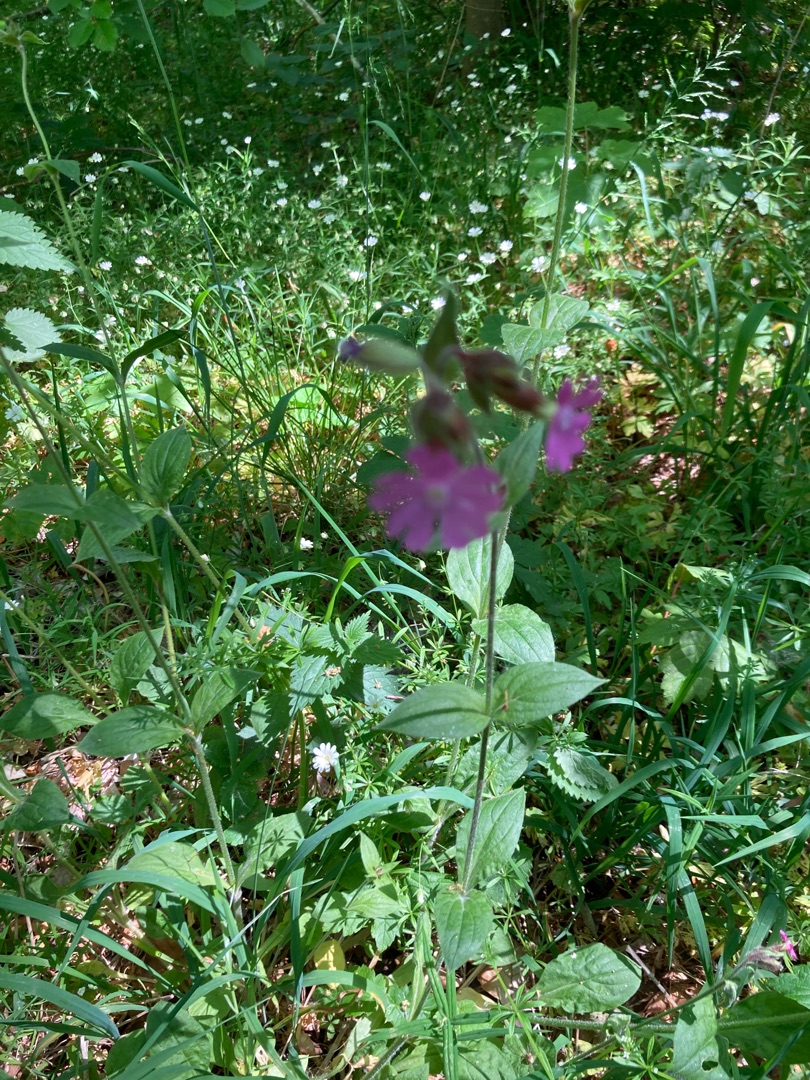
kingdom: Plantae
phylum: Tracheophyta
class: Magnoliopsida
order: Caryophyllales
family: Caryophyllaceae
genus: Silene
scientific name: Silene dioica
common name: Dagpragtstjerne
